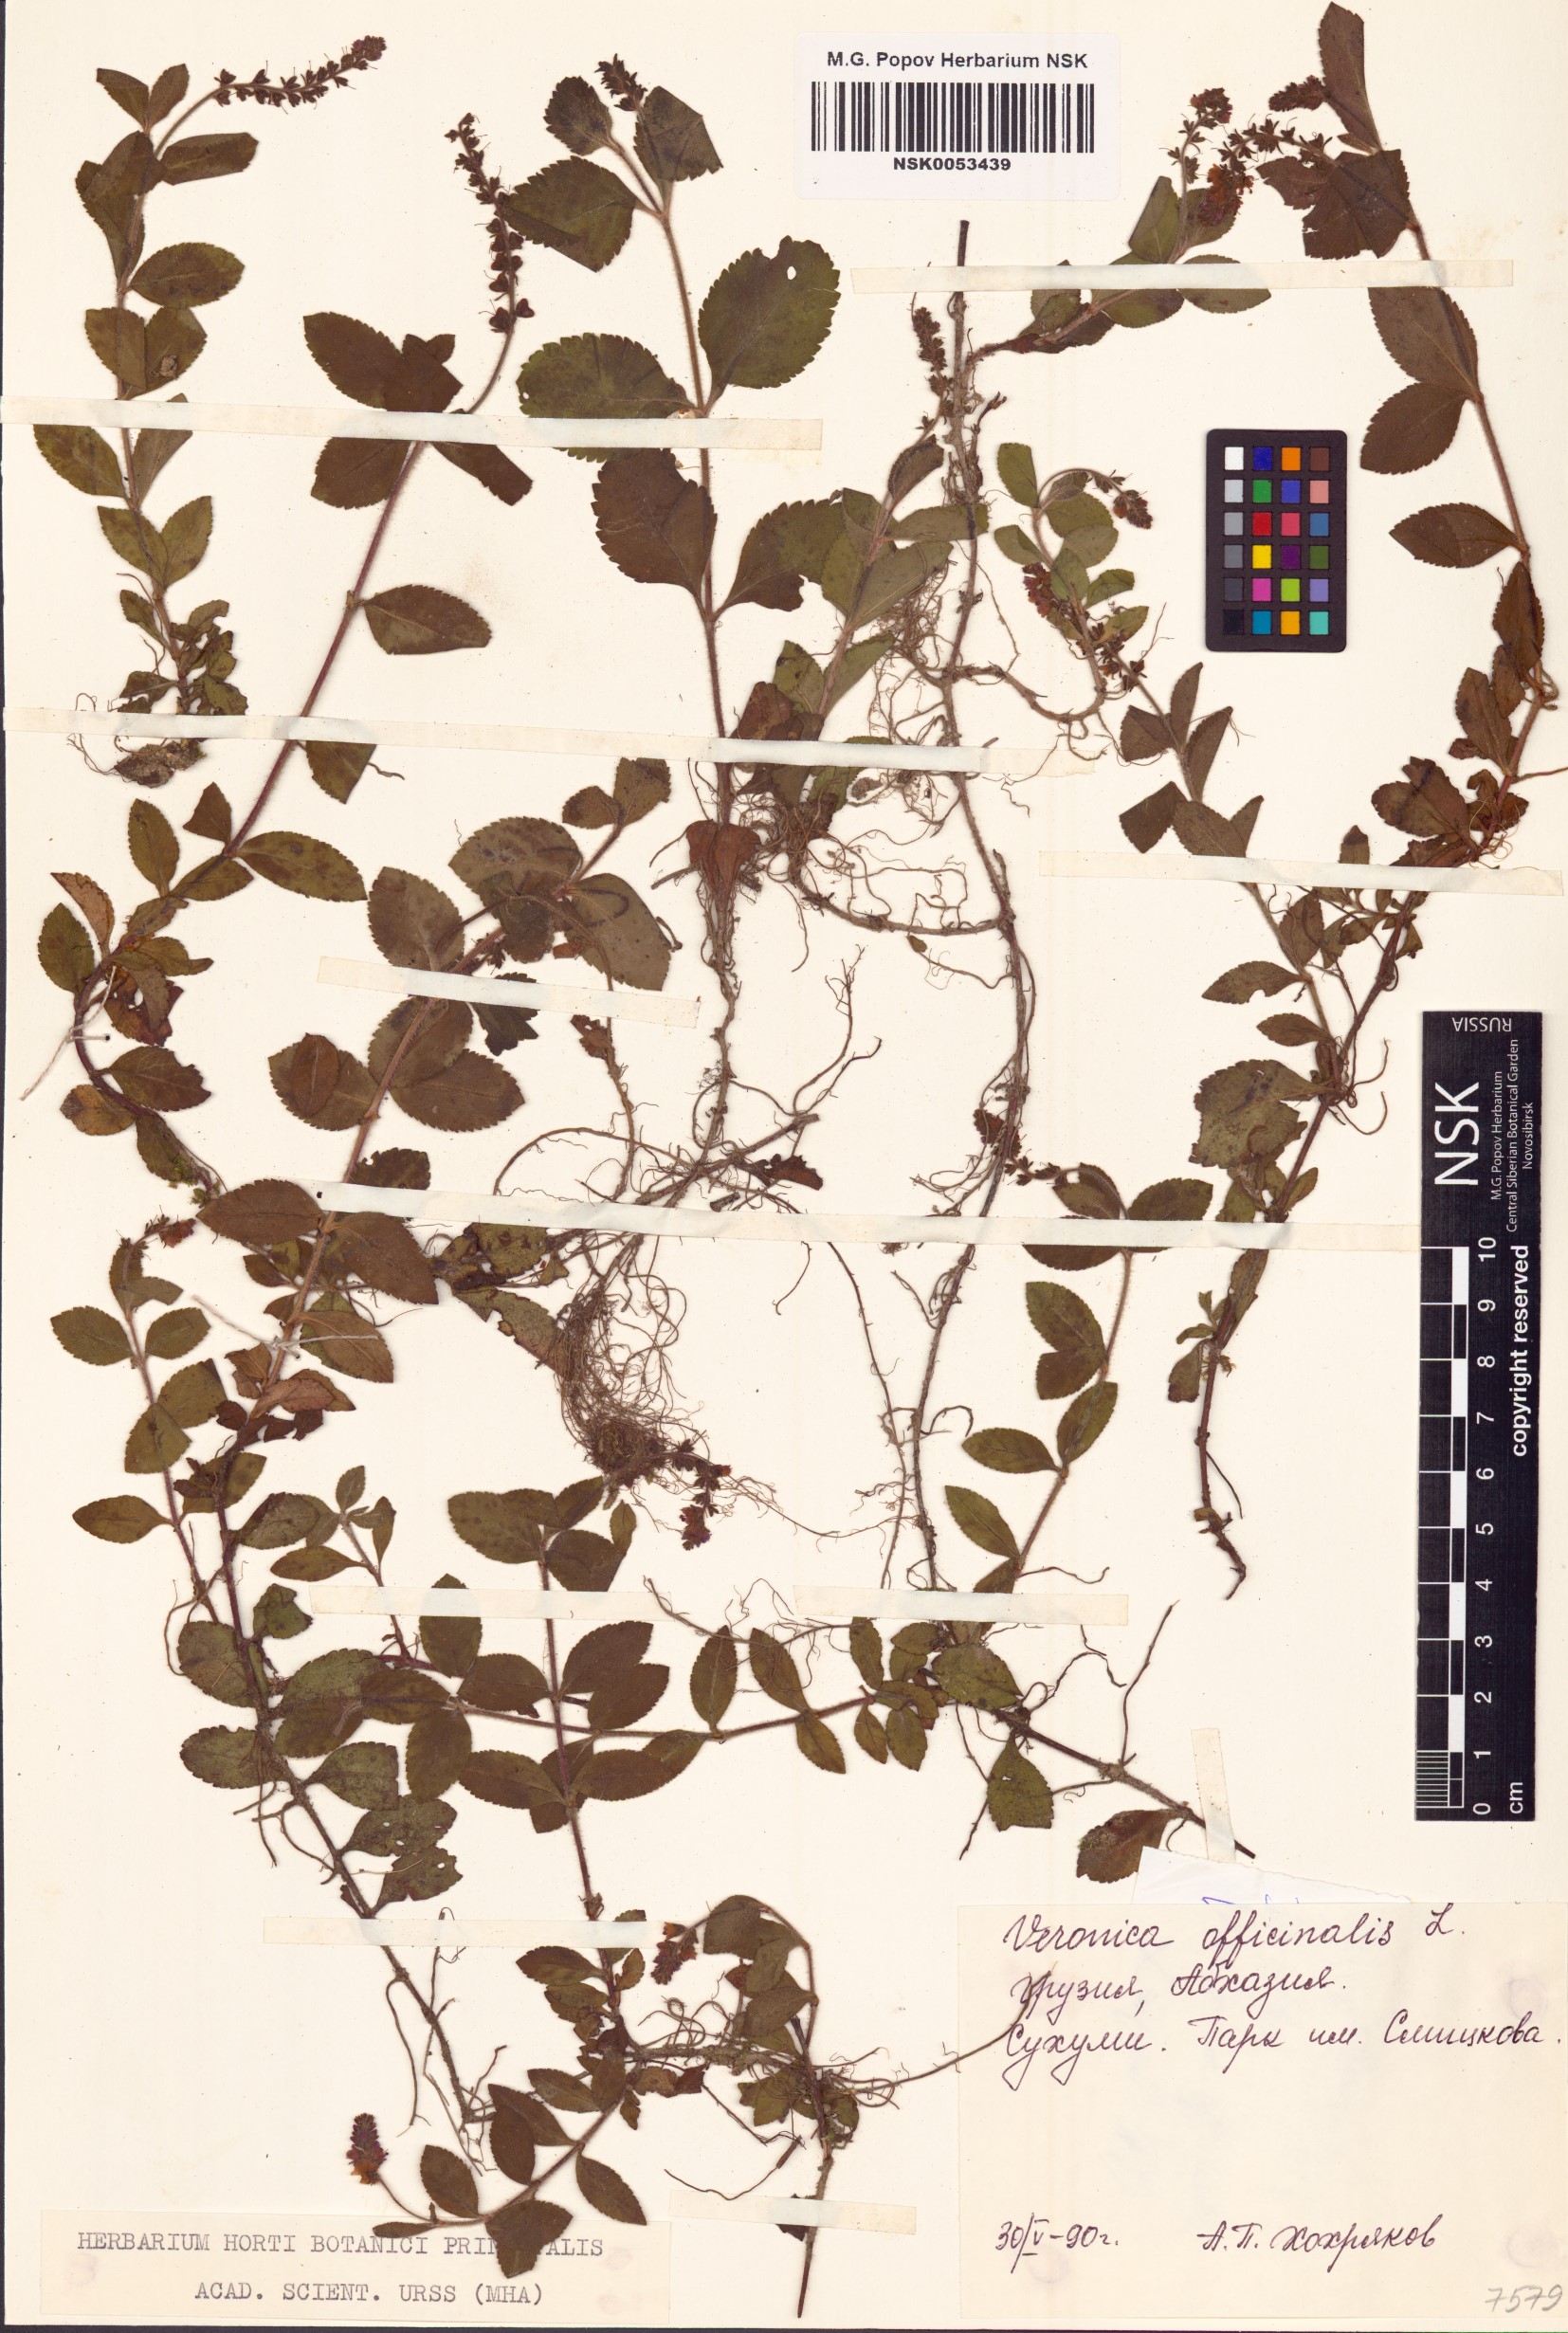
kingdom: Plantae
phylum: Tracheophyta
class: Magnoliopsida
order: Lamiales
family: Plantaginaceae
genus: Veronica
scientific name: Veronica officinalis
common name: Common speedwell
